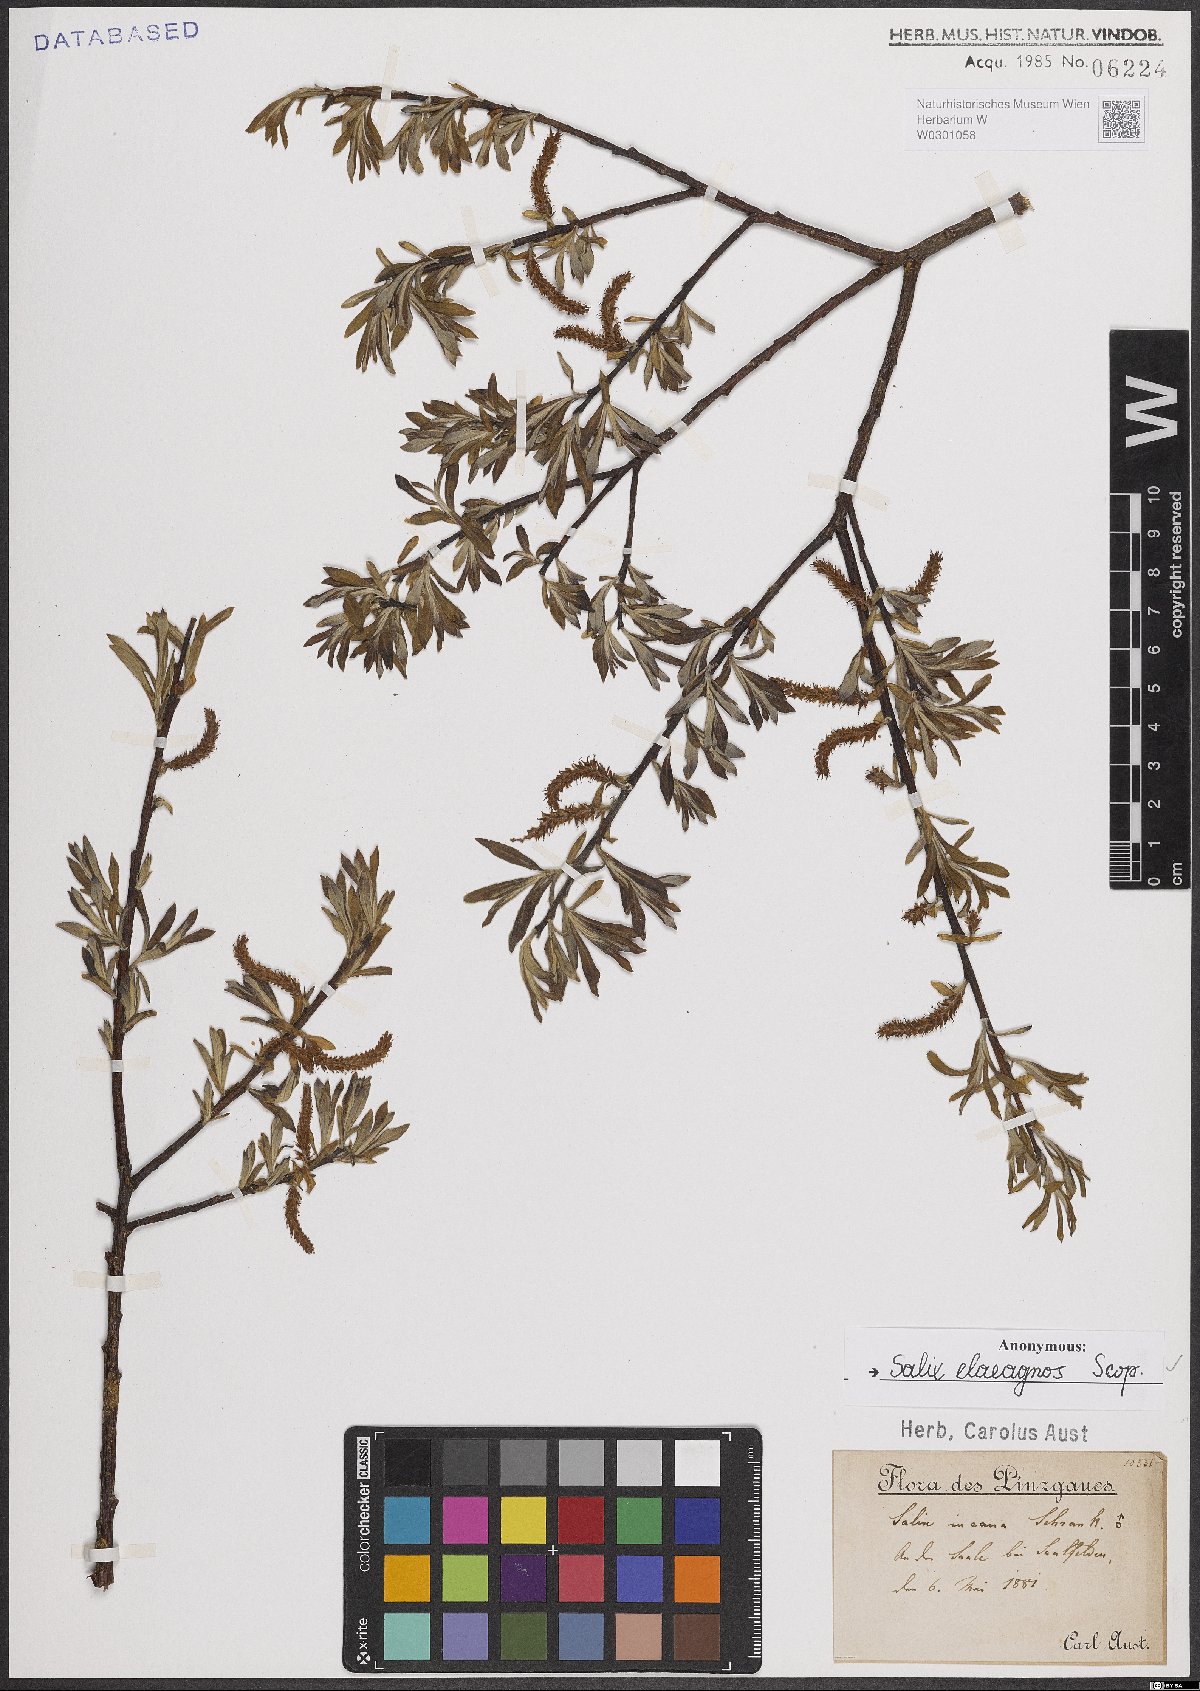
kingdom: Plantae
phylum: Tracheophyta
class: Magnoliopsida
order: Malpighiales
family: Salicaceae
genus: Salix
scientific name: Salix eleagnos
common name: Elaeagnus willow
